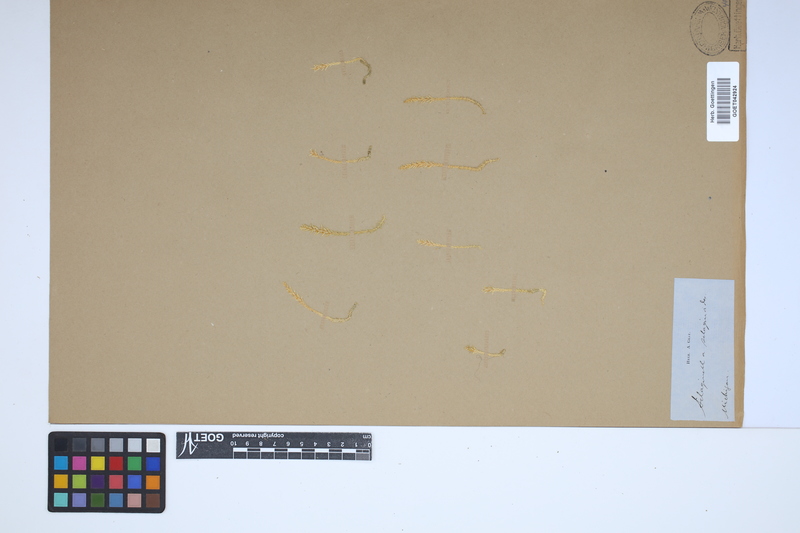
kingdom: Plantae
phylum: Tracheophyta
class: Lycopodiopsida
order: Selaginellales
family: Selaginellaceae
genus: Selaginella
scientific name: Selaginella selaginoides
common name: Prickly mountain-moss
